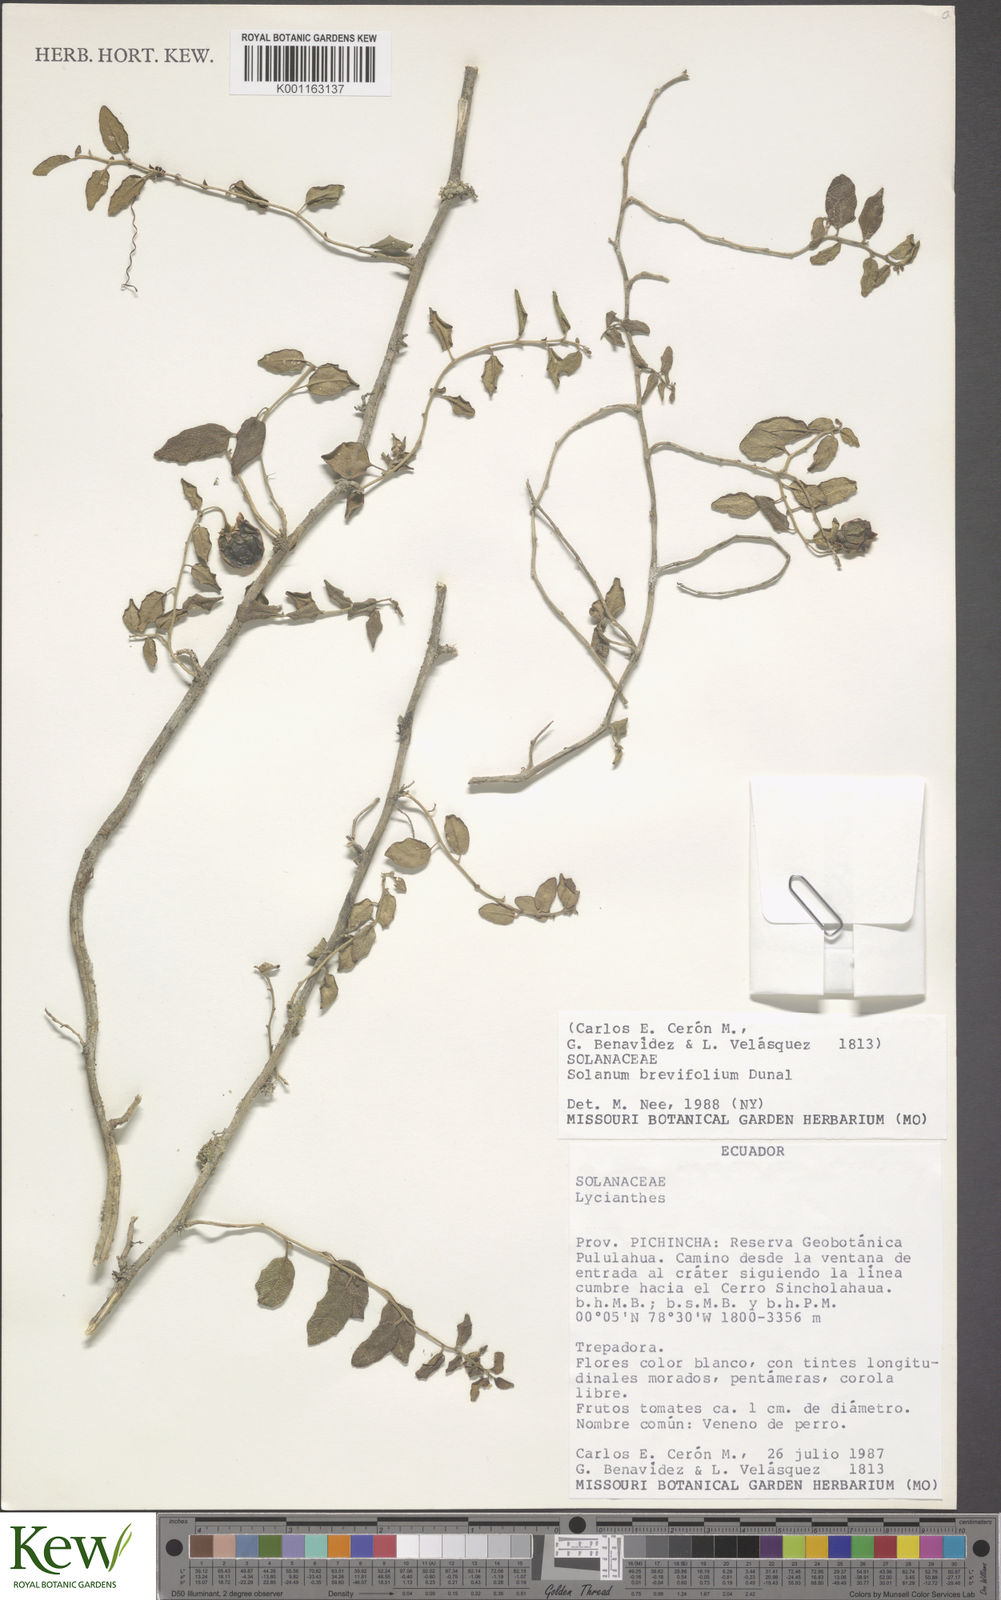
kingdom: Plantae
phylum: Tracheophyta
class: Magnoliopsida
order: Solanales
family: Solanaceae
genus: Solanum
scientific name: Solanum brevifolium
